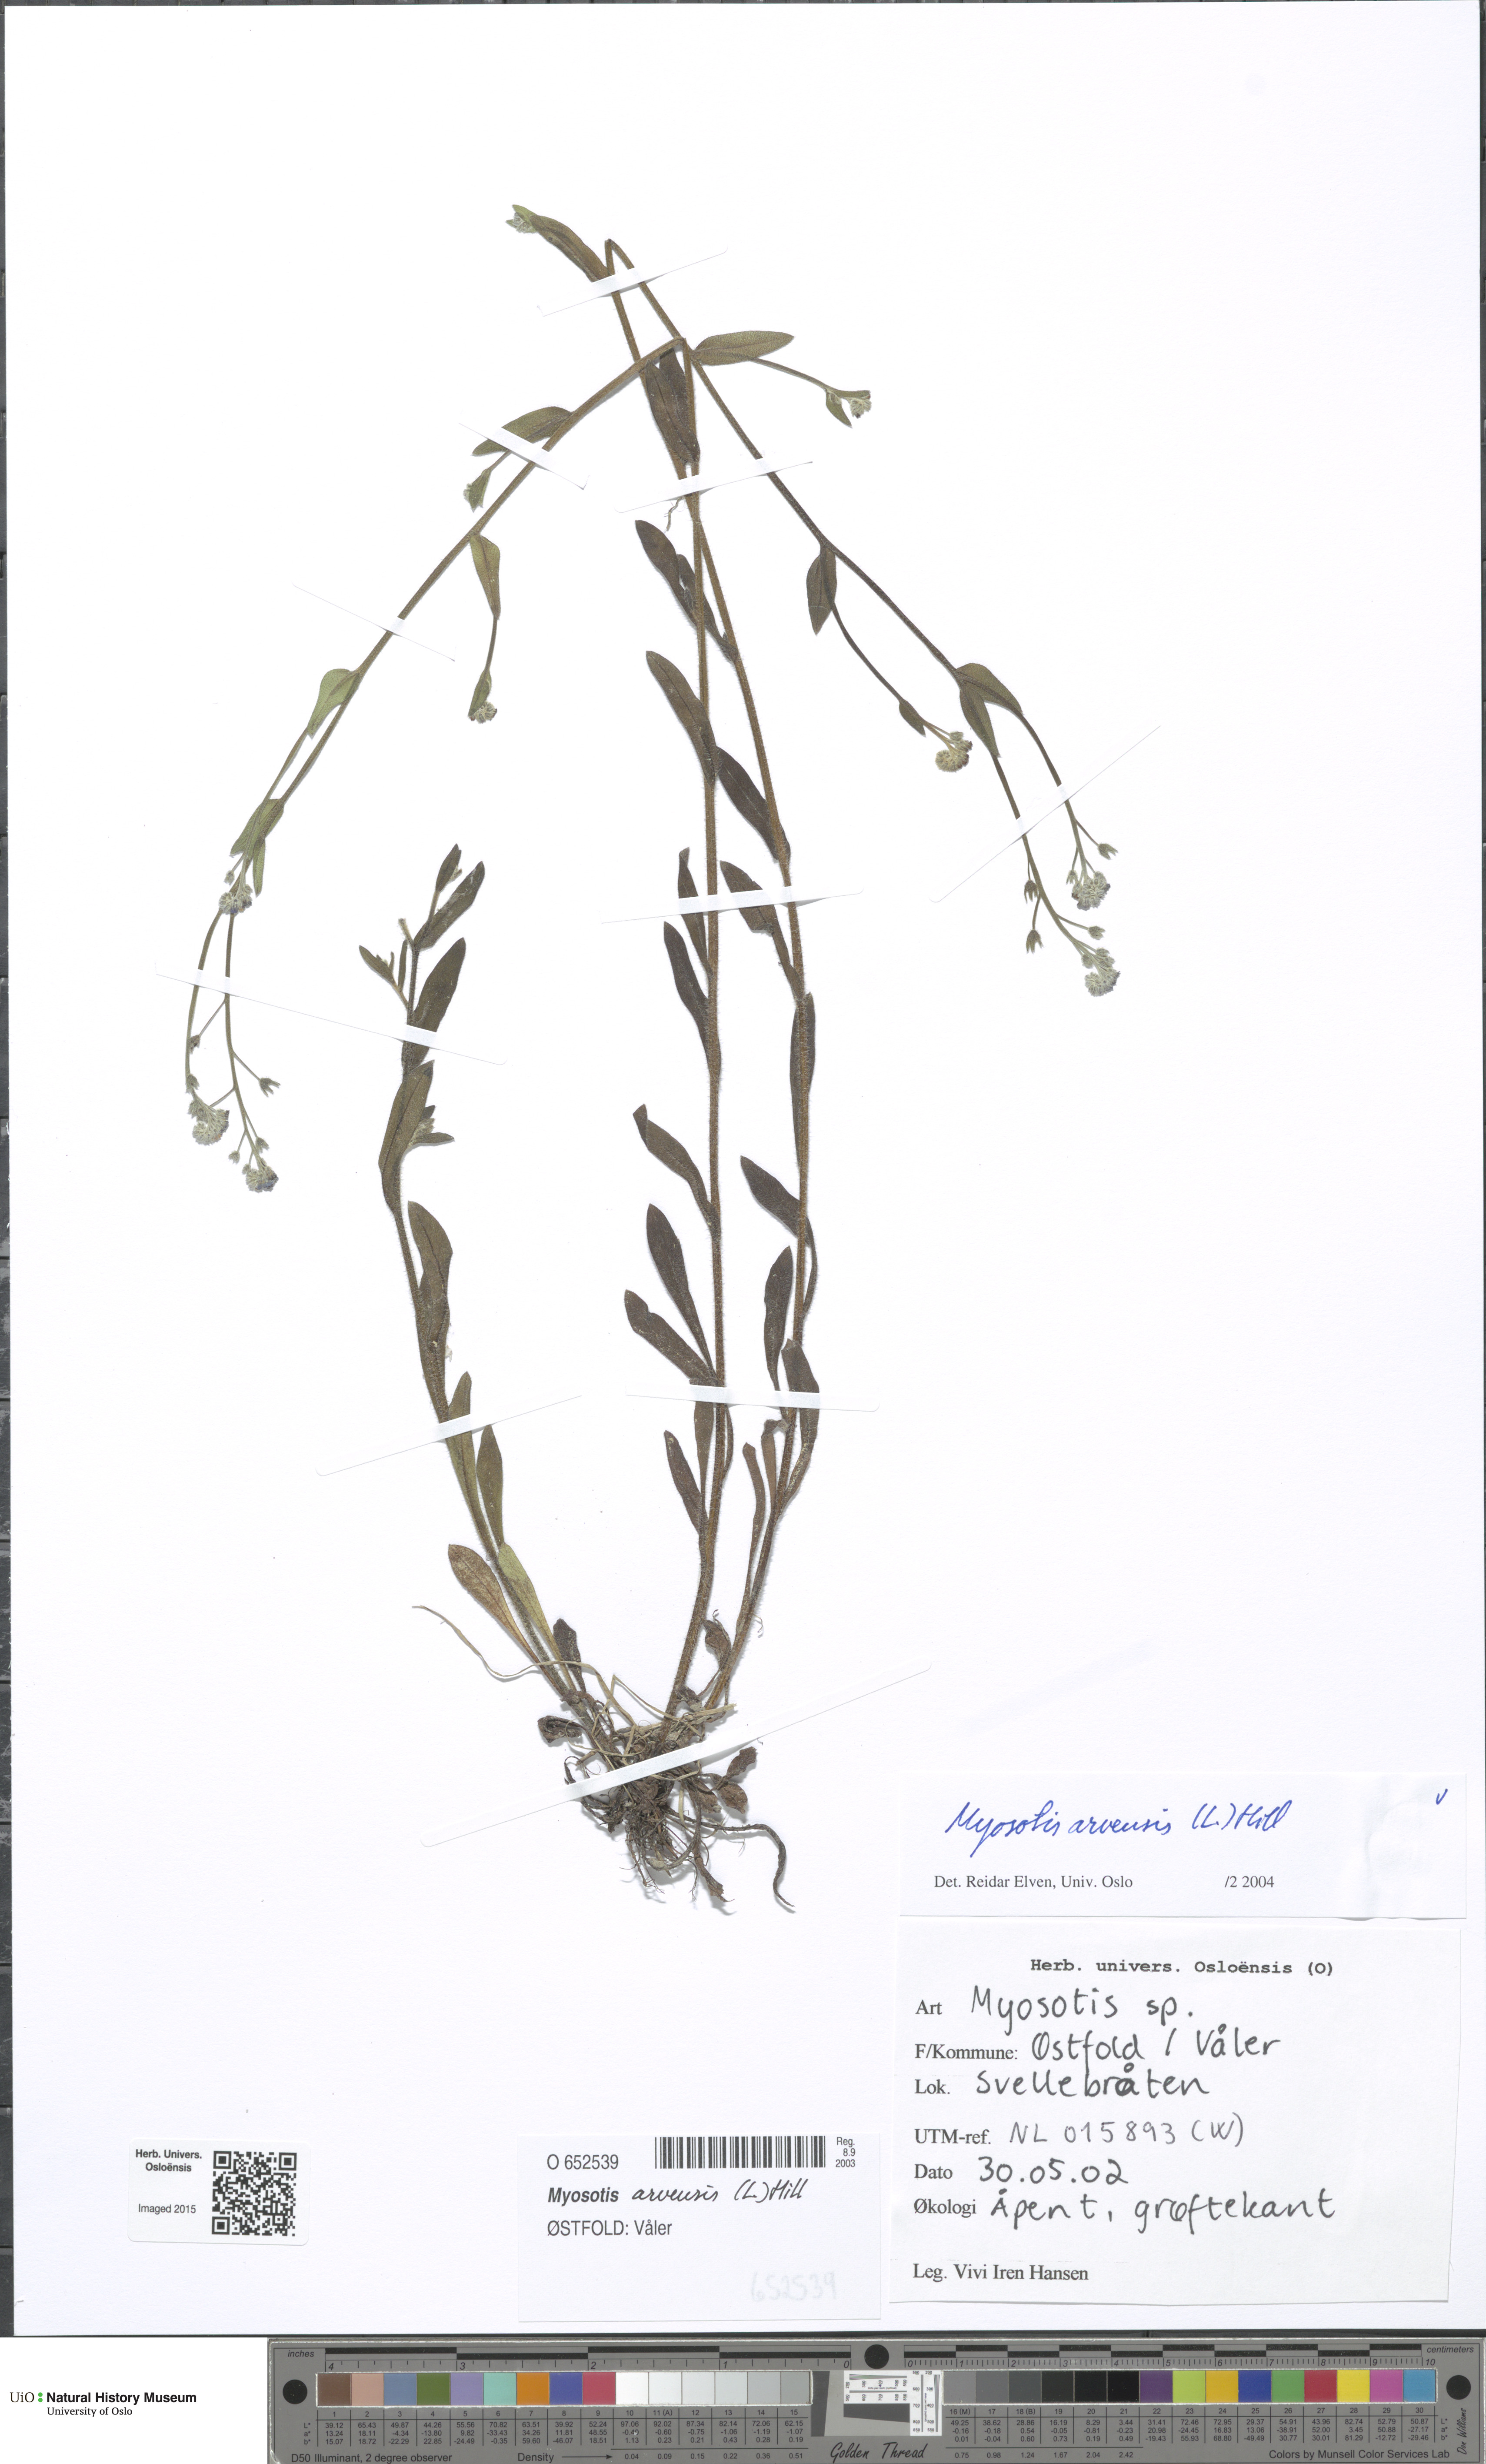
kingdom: Plantae
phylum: Tracheophyta
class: Magnoliopsida
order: Boraginales
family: Boraginaceae
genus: Myosotis
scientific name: Myosotis arvensis
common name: Field forget-me-not
